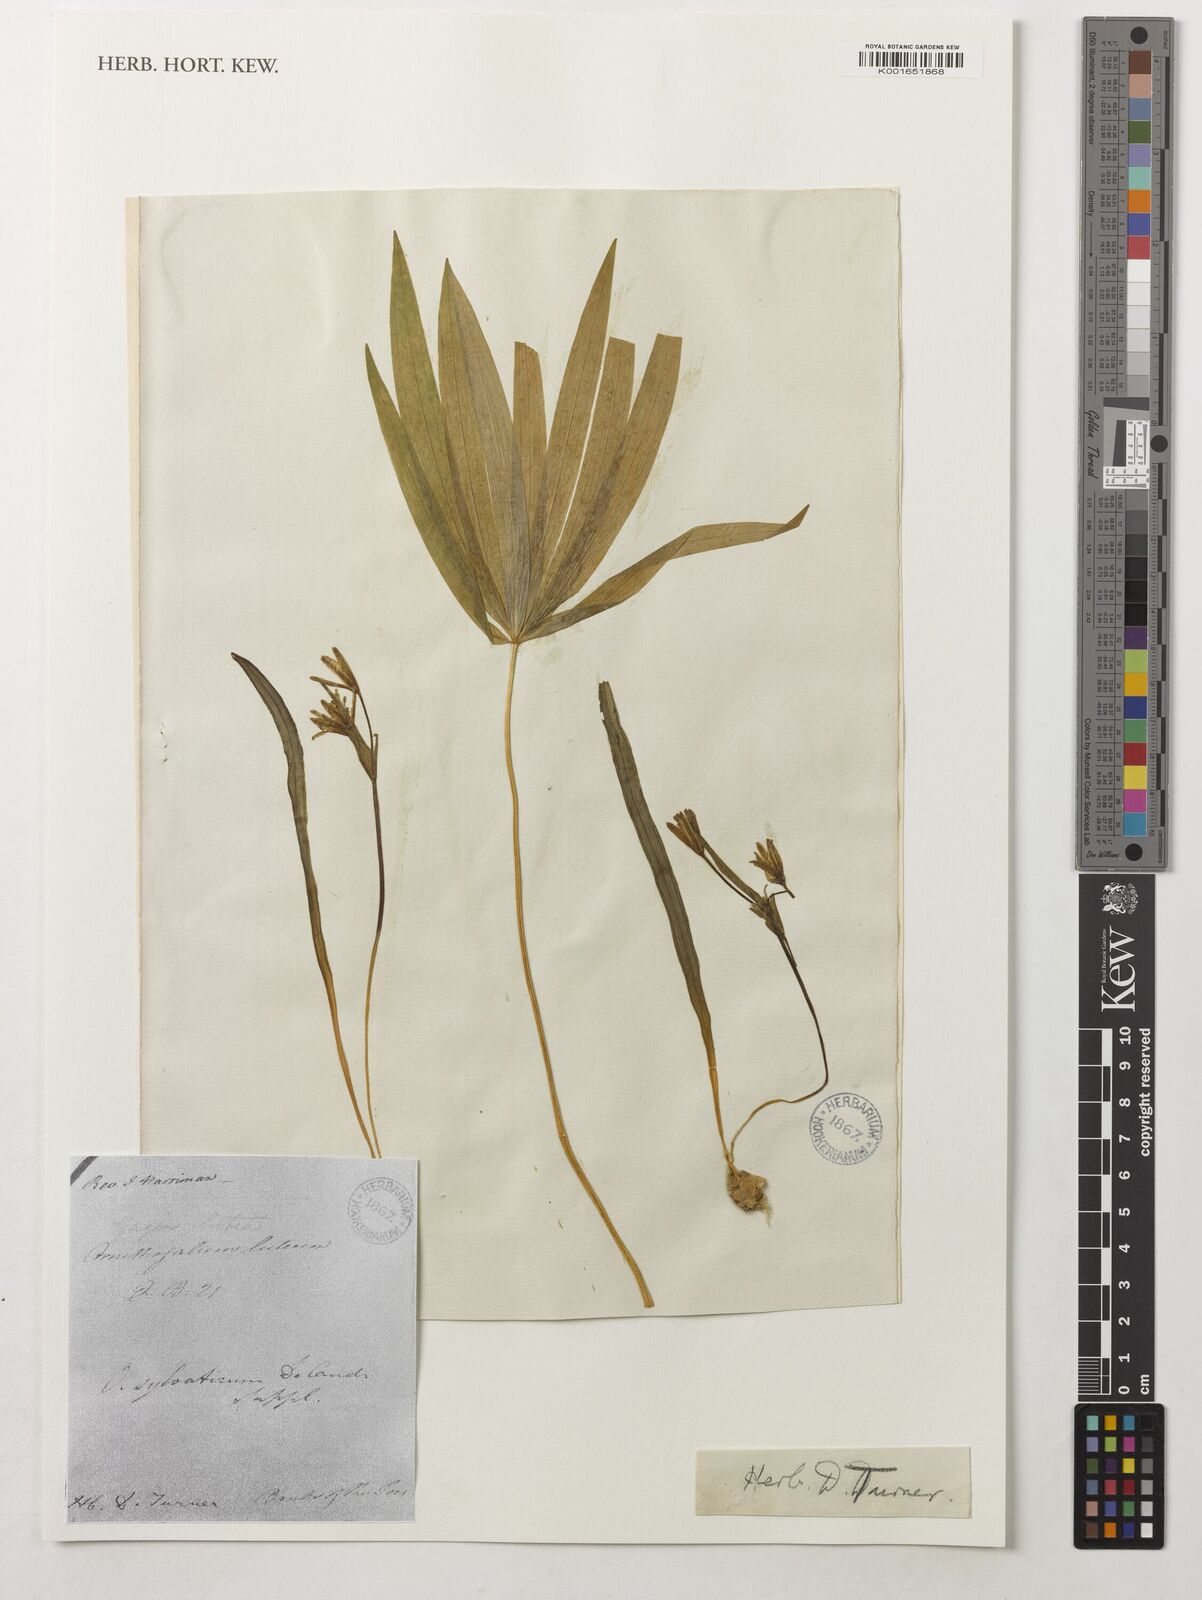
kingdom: Plantae
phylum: Tracheophyta
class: Liliopsida
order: Liliales
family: Liliaceae
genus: Gagea
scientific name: Gagea lutea
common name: Yellow star-of-bethlehem
